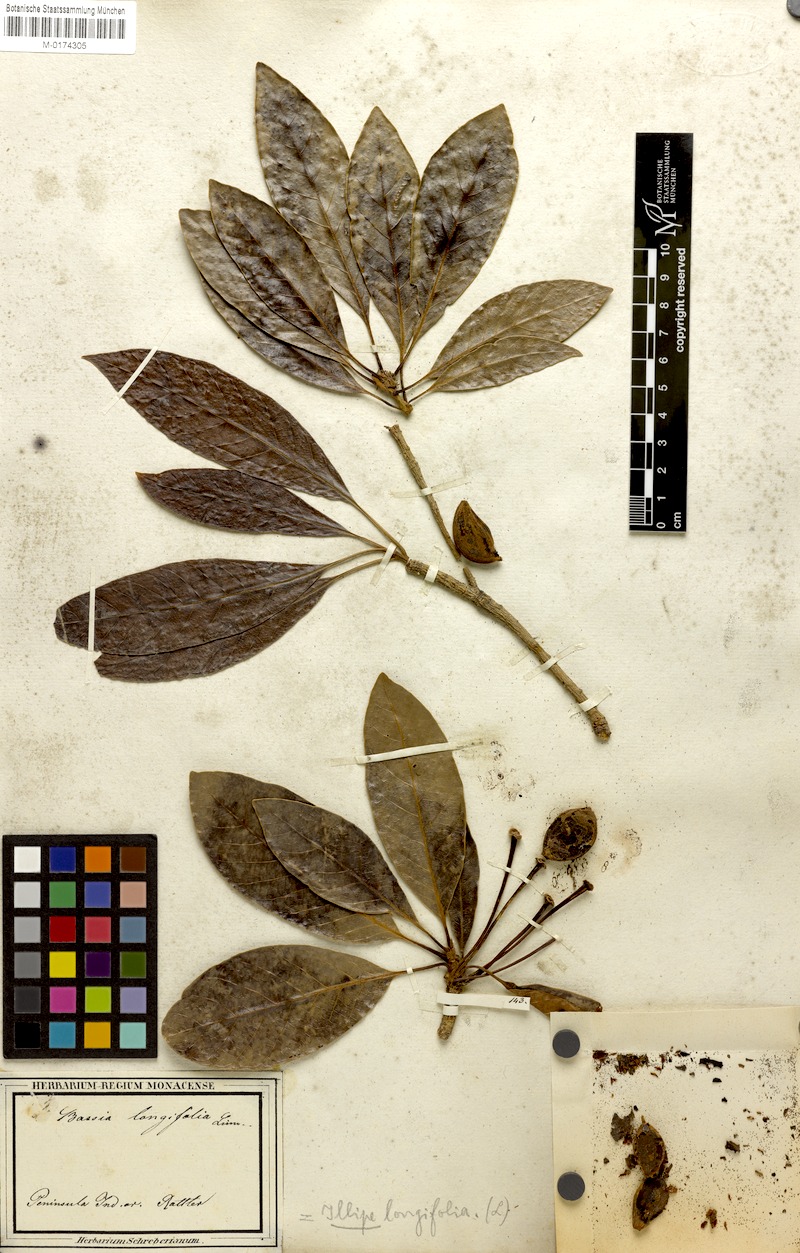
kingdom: Plantae
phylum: Tracheophyta
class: Magnoliopsida
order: Ericales
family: Sapotaceae
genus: Madhuca
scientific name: Madhuca longifolia
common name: Mowra-buttertree
